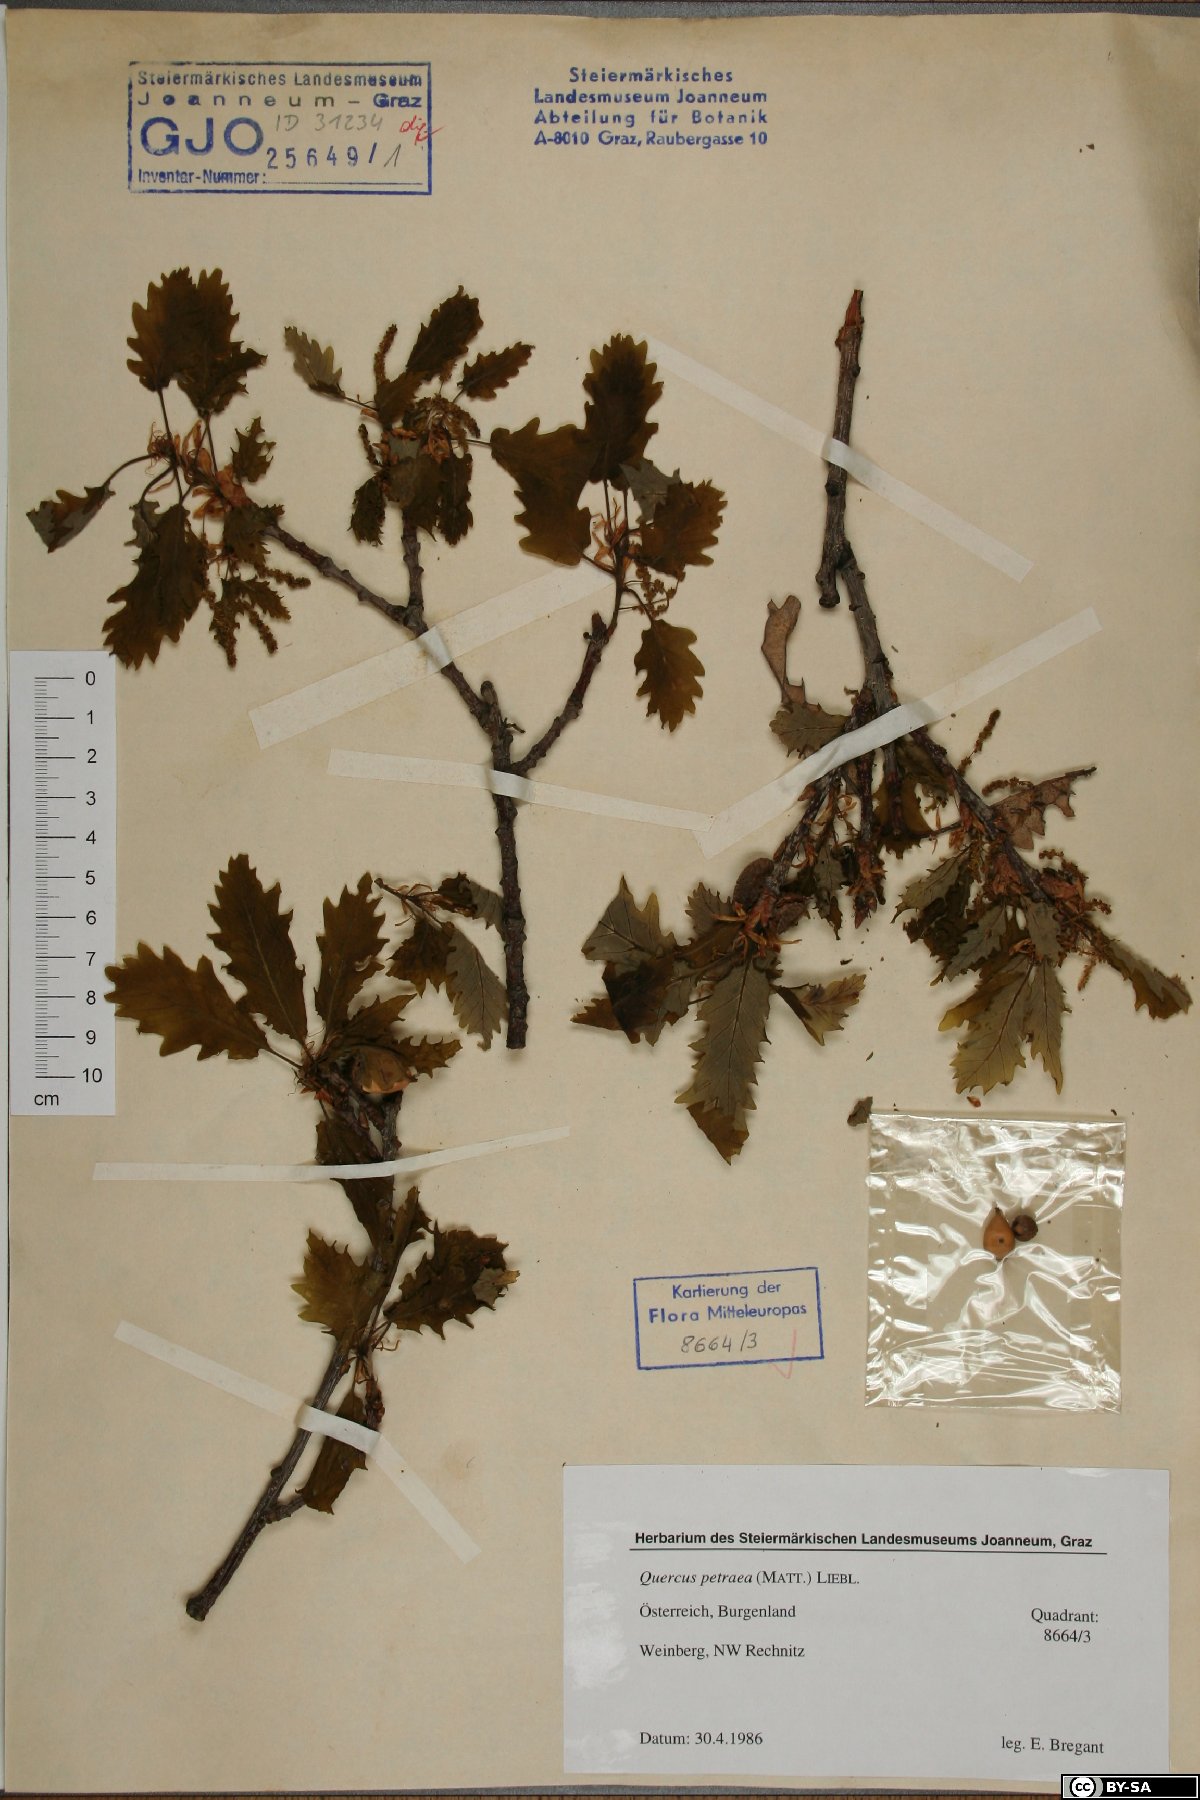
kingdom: Plantae
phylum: Tracheophyta
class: Magnoliopsida
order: Fagales
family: Fagaceae
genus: Quercus
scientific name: Quercus petraea
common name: Sessile oak
